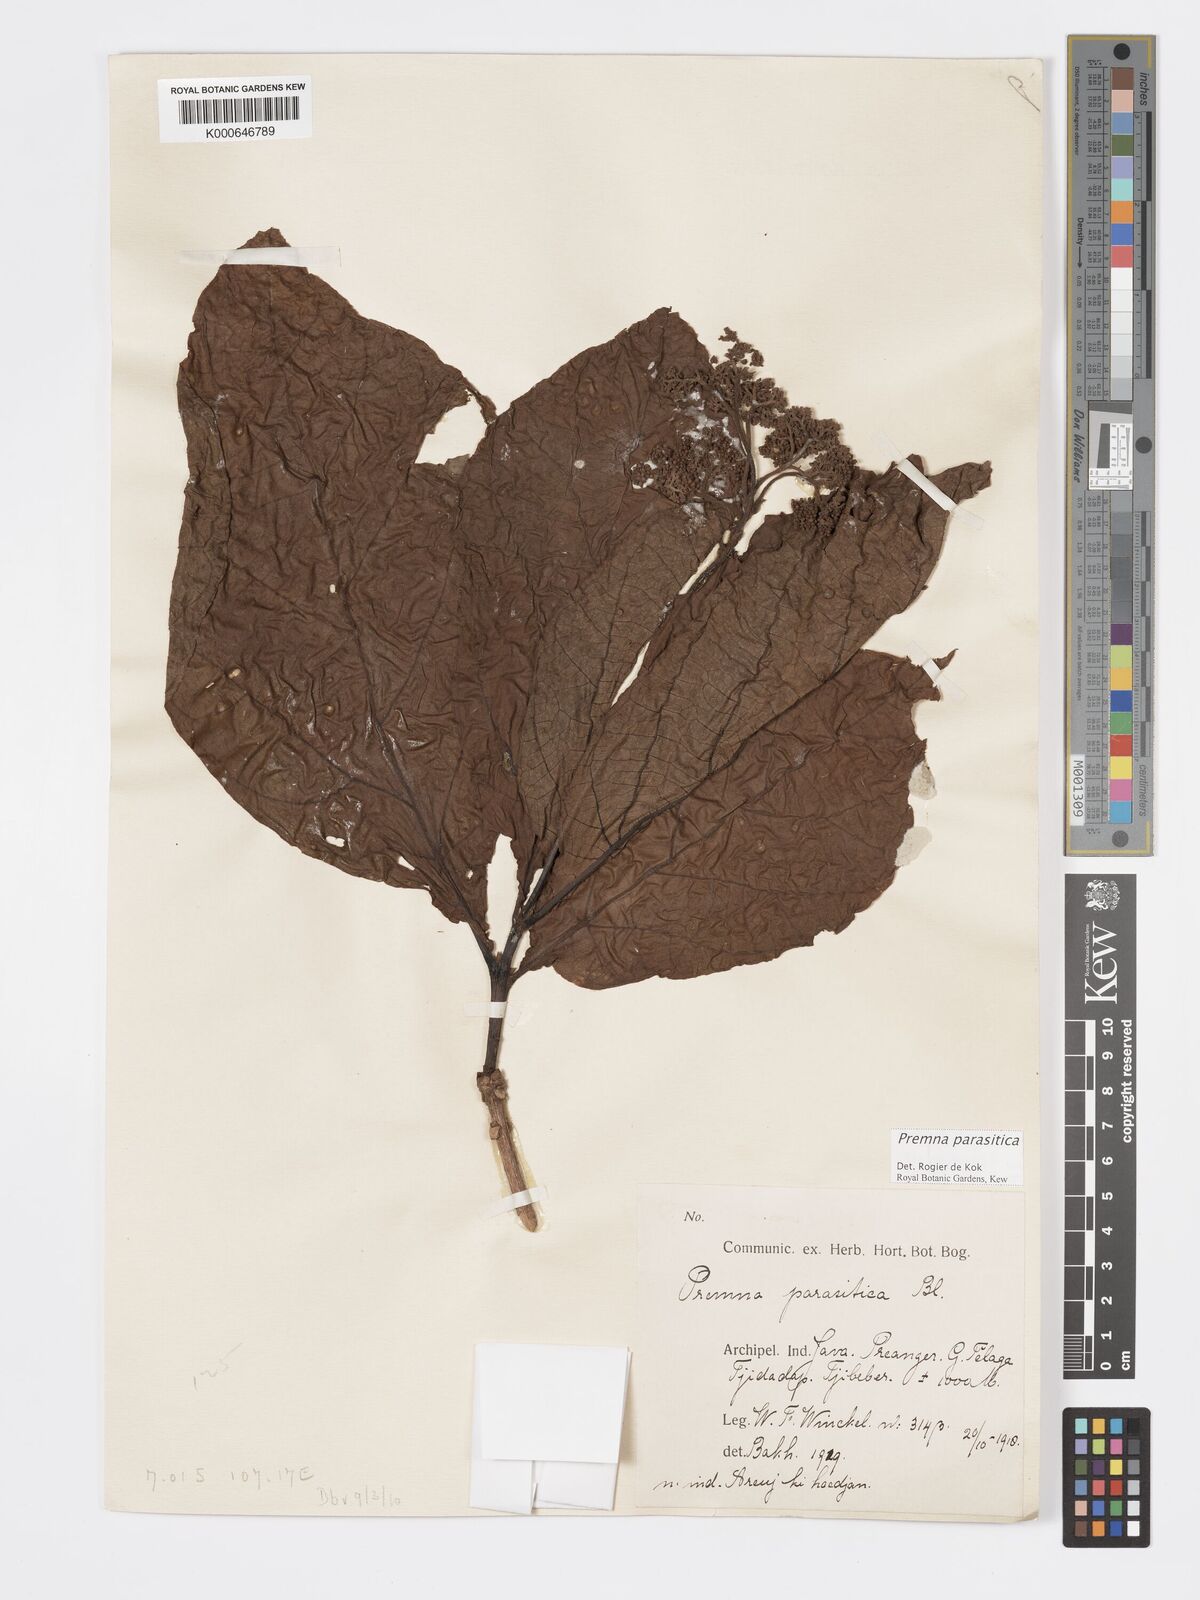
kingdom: Plantae
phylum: Tracheophyta
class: Magnoliopsida
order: Lamiales
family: Lamiaceae
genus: Premna
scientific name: Premna parasitica
